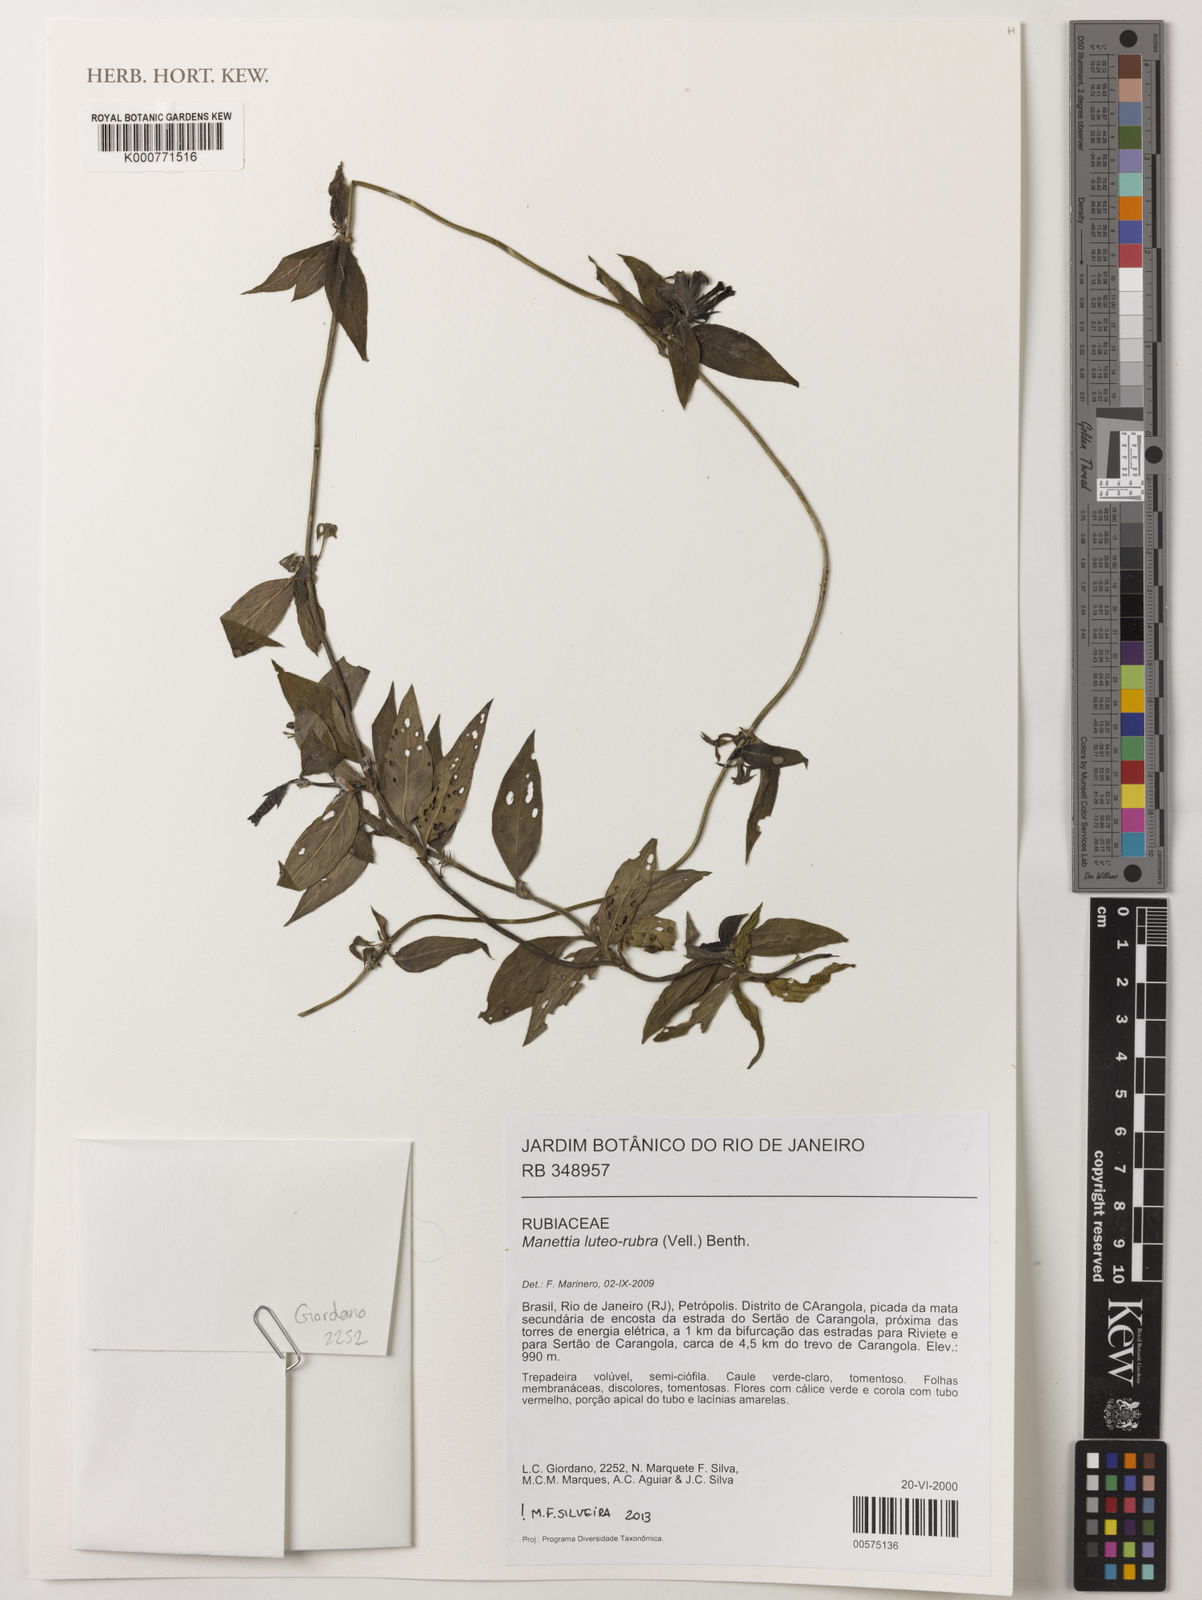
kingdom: Plantae
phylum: Tracheophyta
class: Magnoliopsida
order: Gentianales
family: Rubiaceae
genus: Manettia
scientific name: Manettia luteorubra
